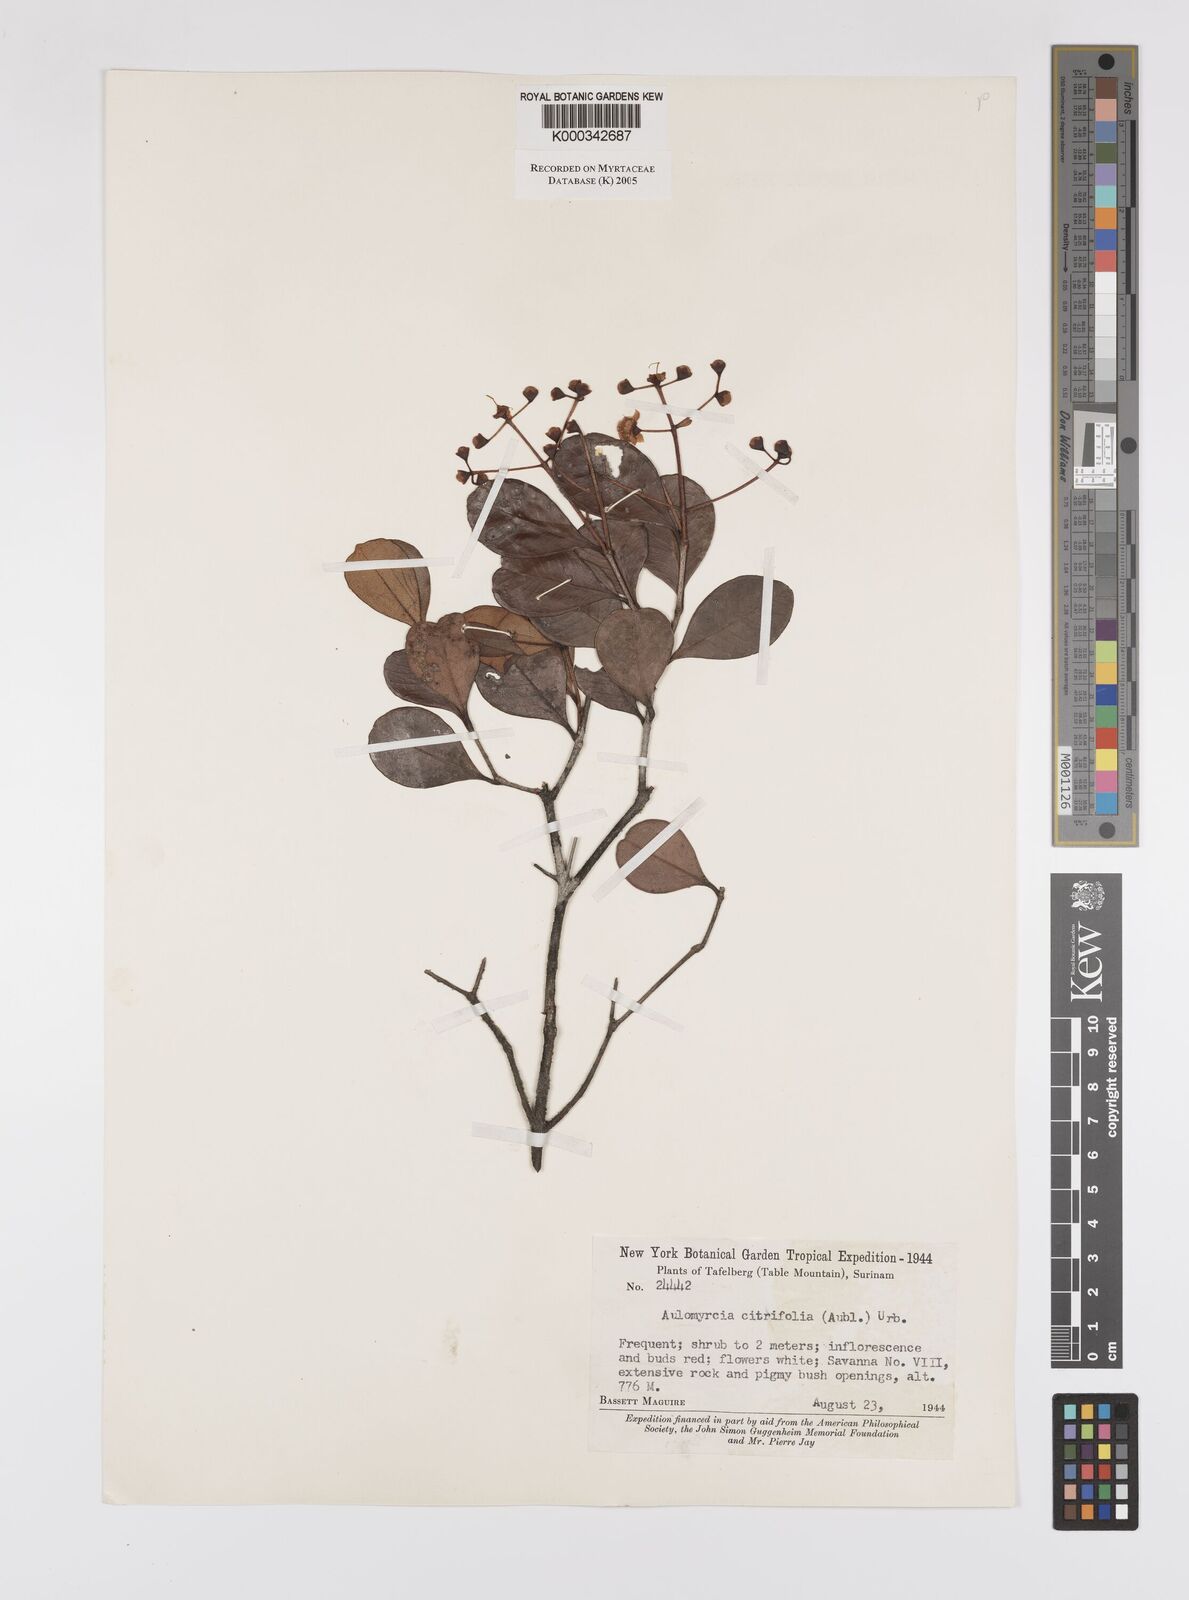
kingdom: Plantae
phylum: Tracheophyta
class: Magnoliopsida
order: Myrtales
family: Myrtaceae
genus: Myrcia
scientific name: Myrcia guianensis
